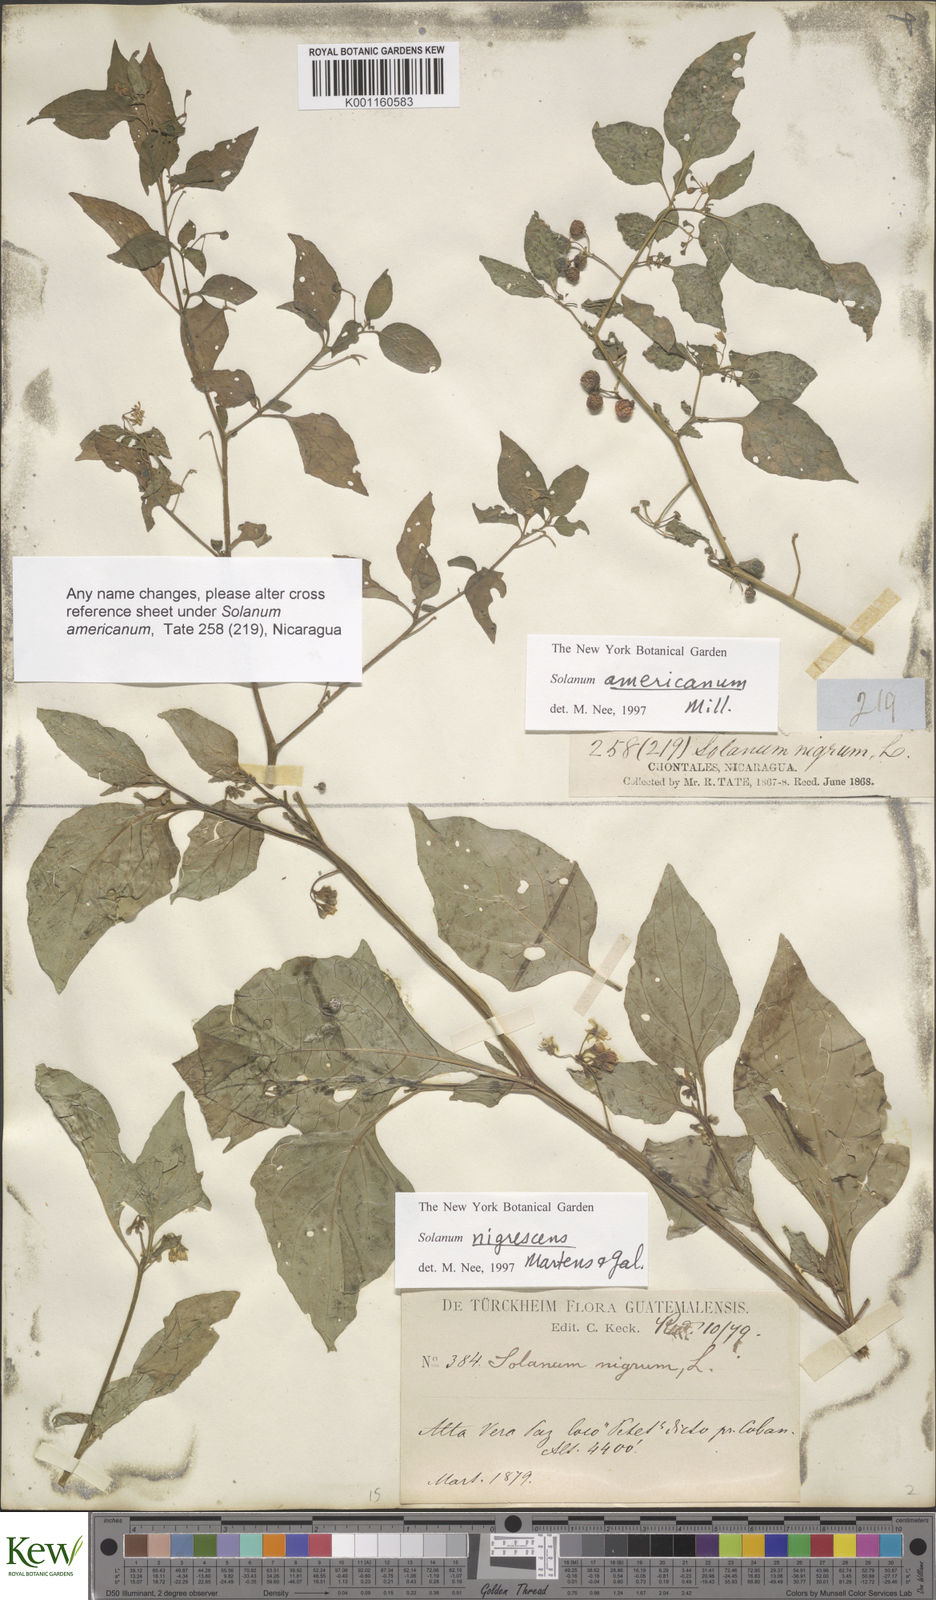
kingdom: Plantae
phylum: Tracheophyta
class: Magnoliopsida
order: Solanales
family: Solanaceae
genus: Solanum
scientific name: Solanum nigrescens
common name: Divine nightshade
